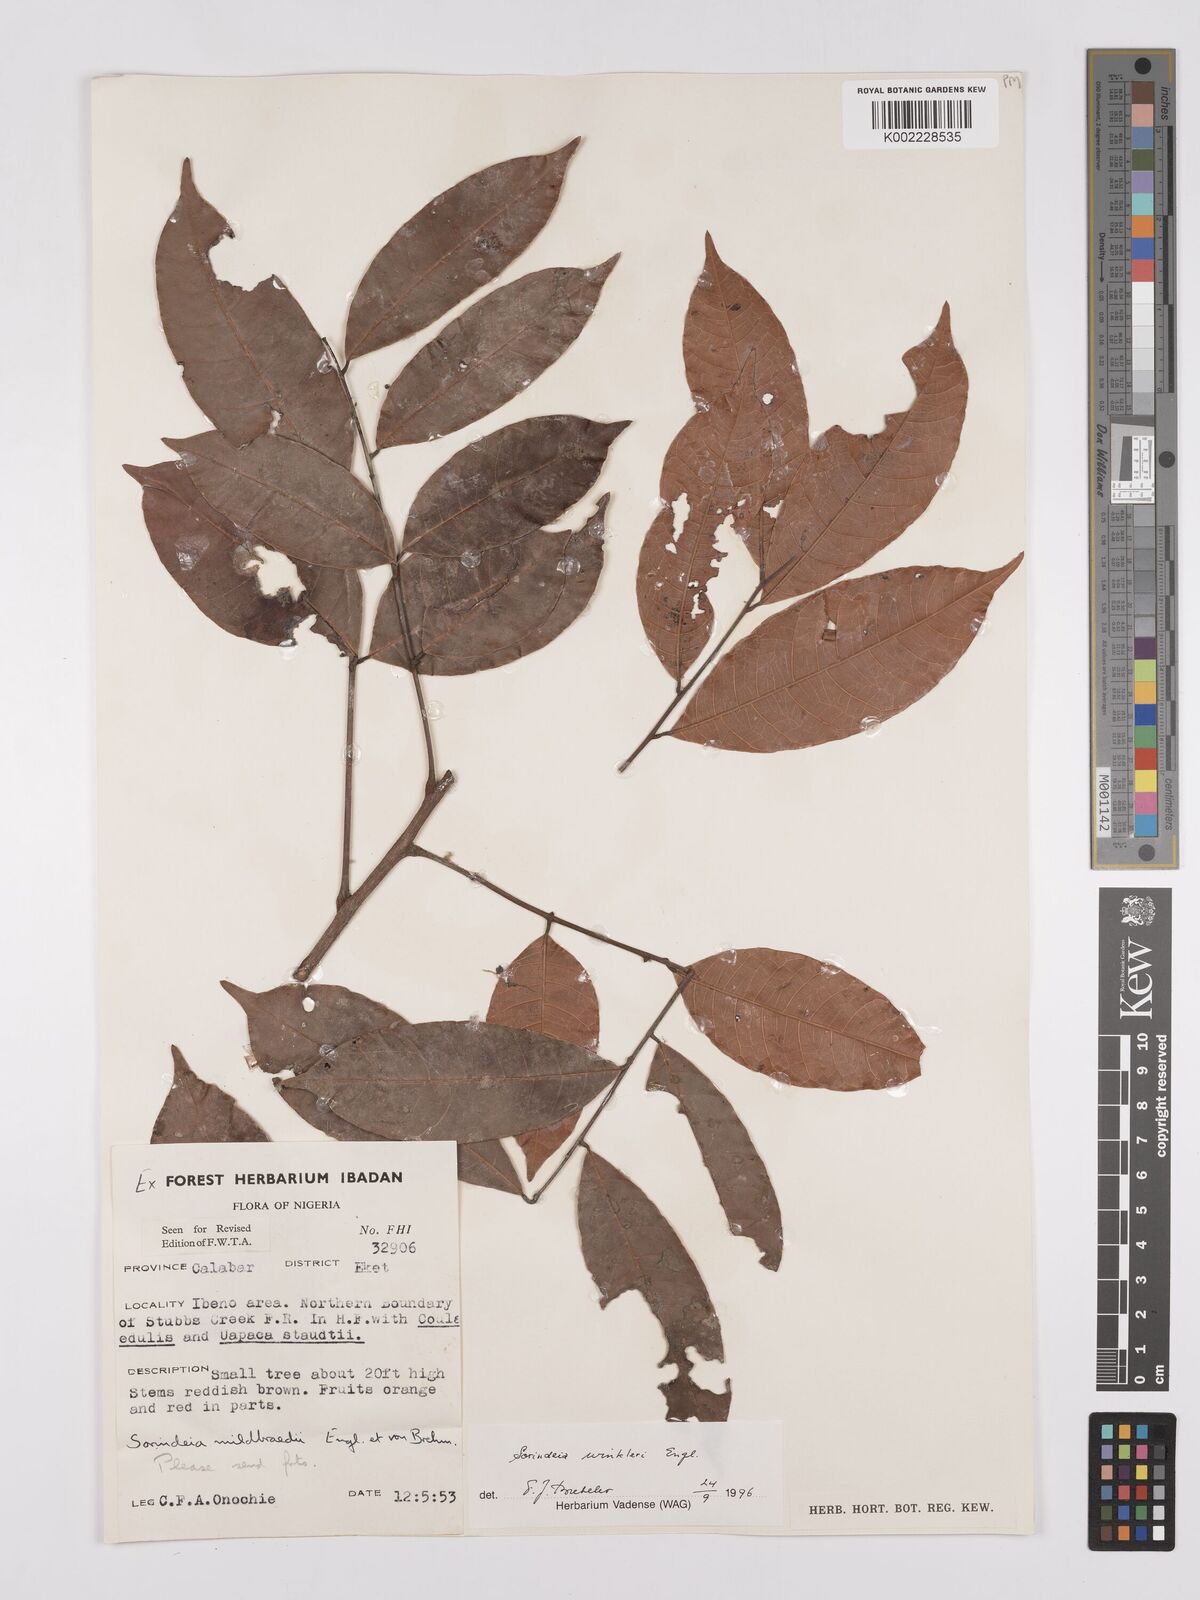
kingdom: Plantae
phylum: Tracheophyta
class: Magnoliopsida
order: Sapindales
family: Anacardiaceae
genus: Sorindeia
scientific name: Sorindeia winkleri
